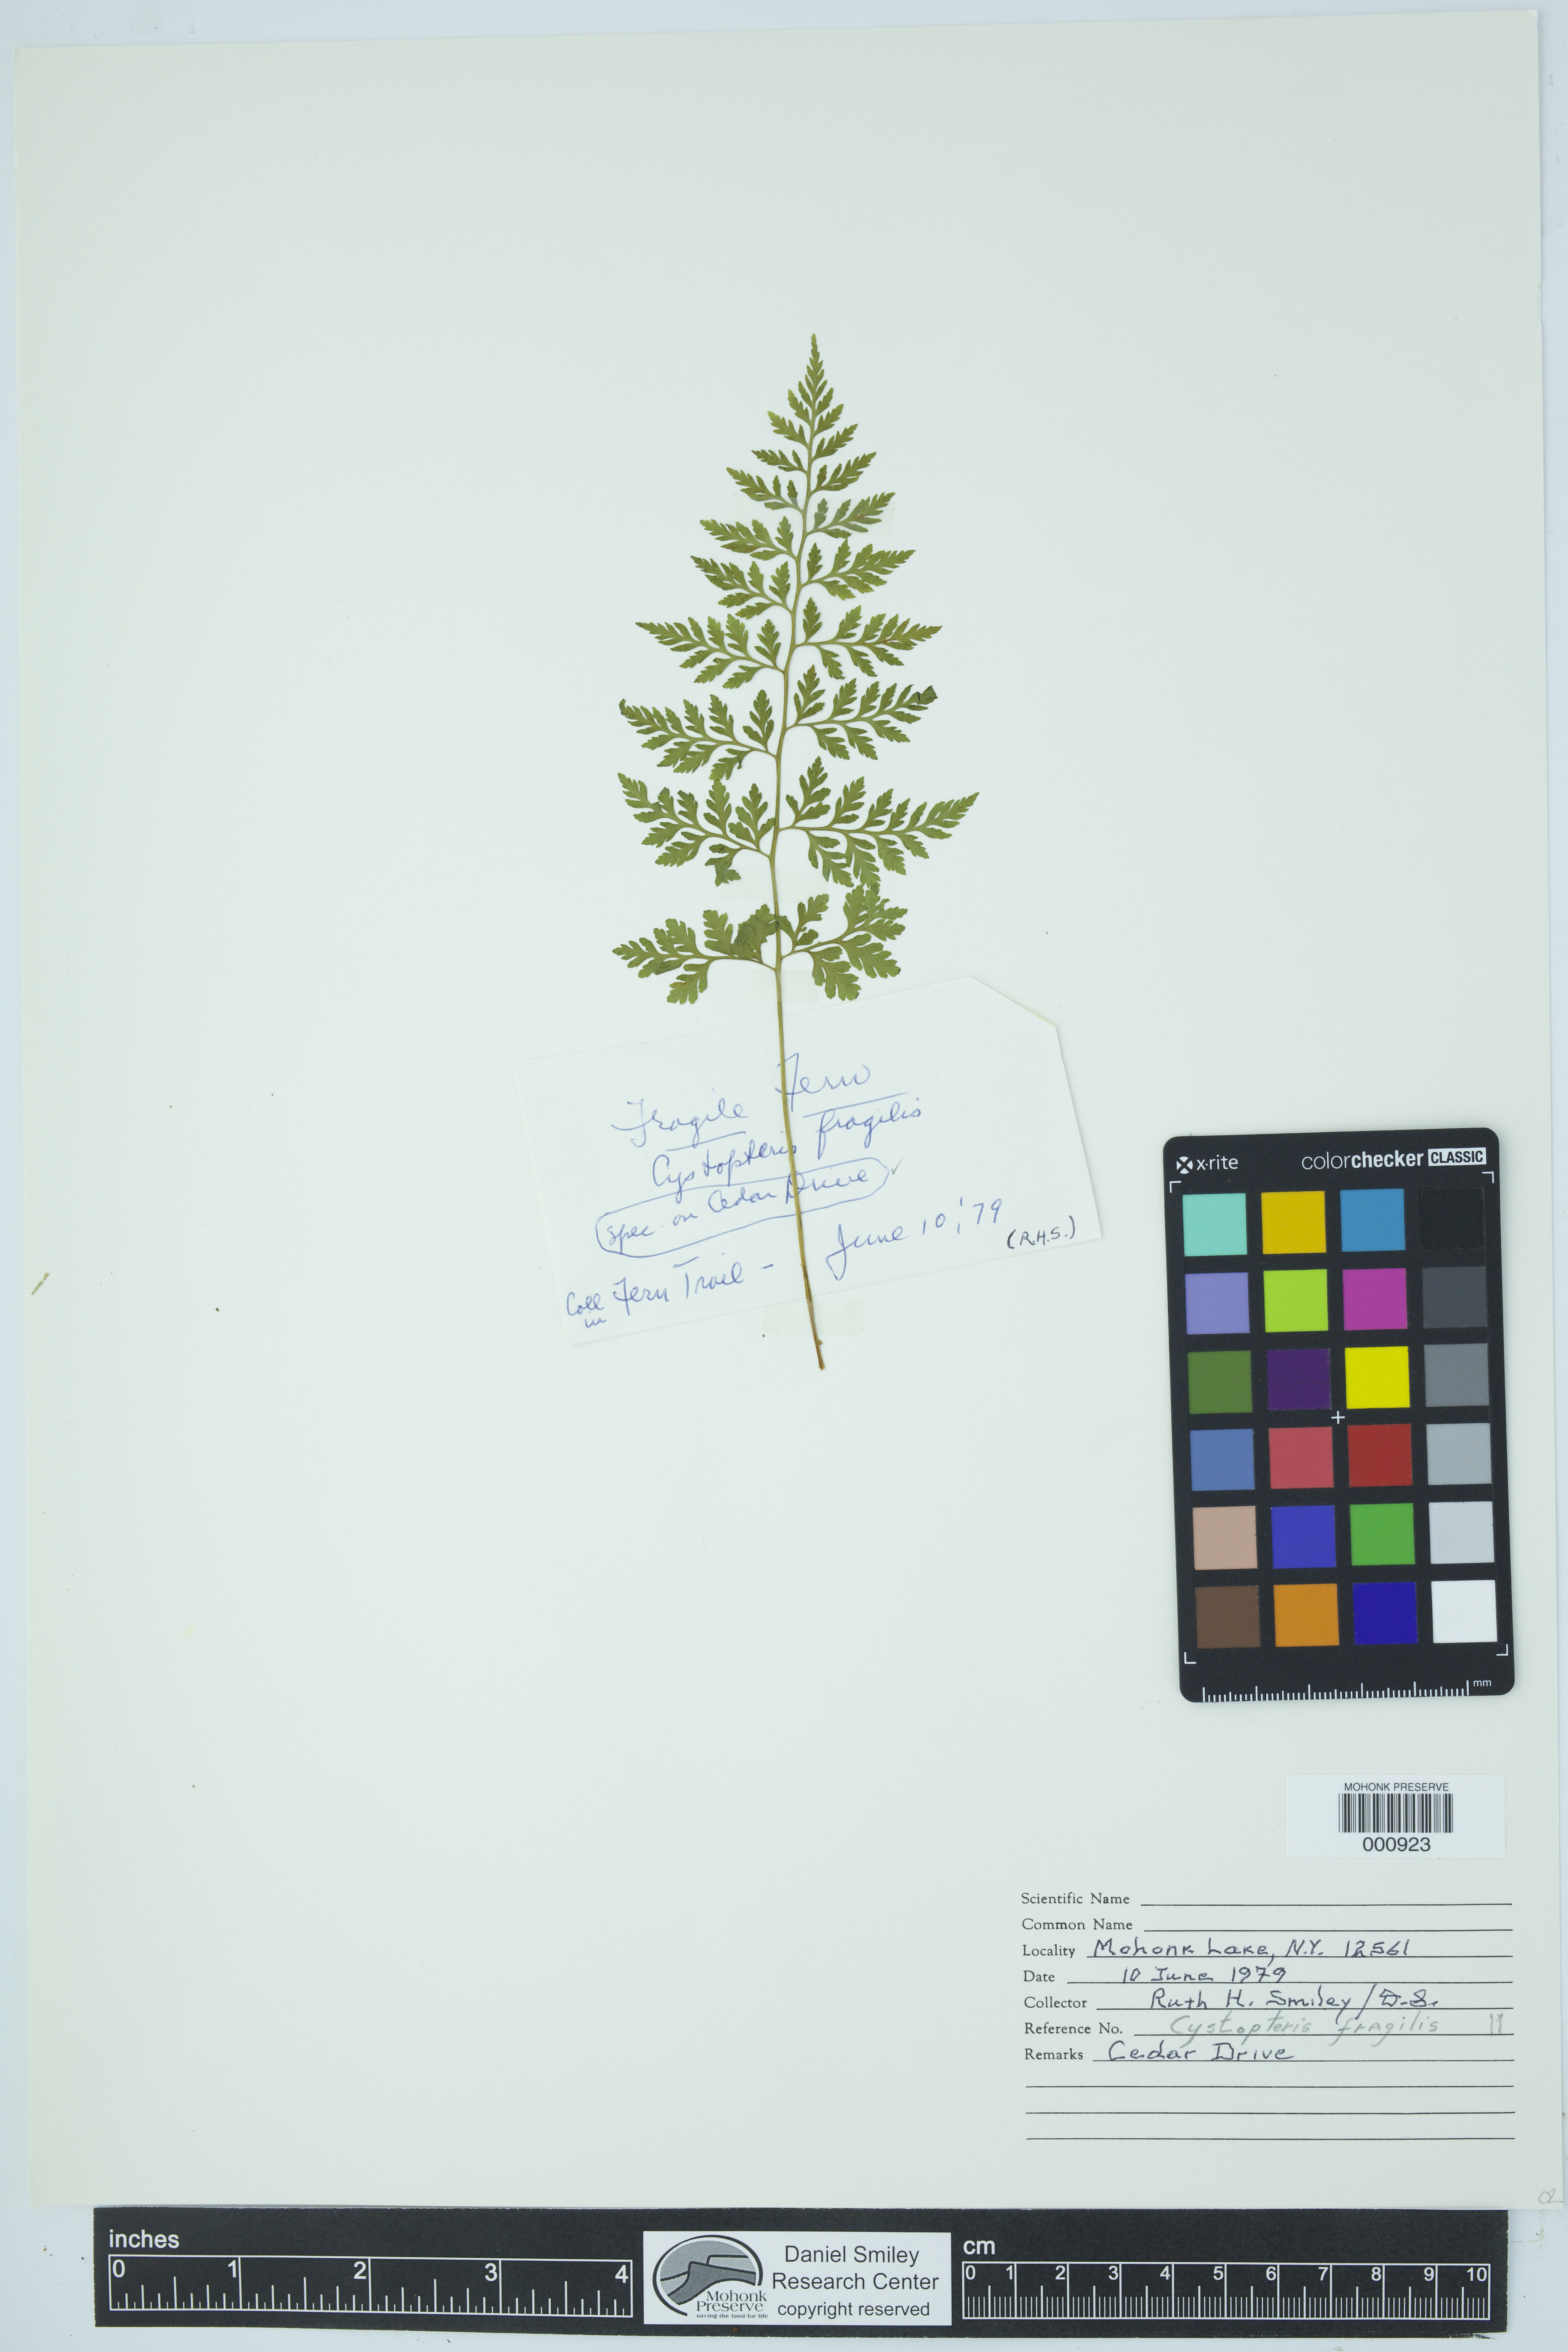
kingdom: Plantae
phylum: Tracheophyta
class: Polypodiopsida
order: Polypodiales
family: Cystopteridaceae
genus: Cystopteris
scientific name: Cystopteris fragilis
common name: Brittle bladder fern
